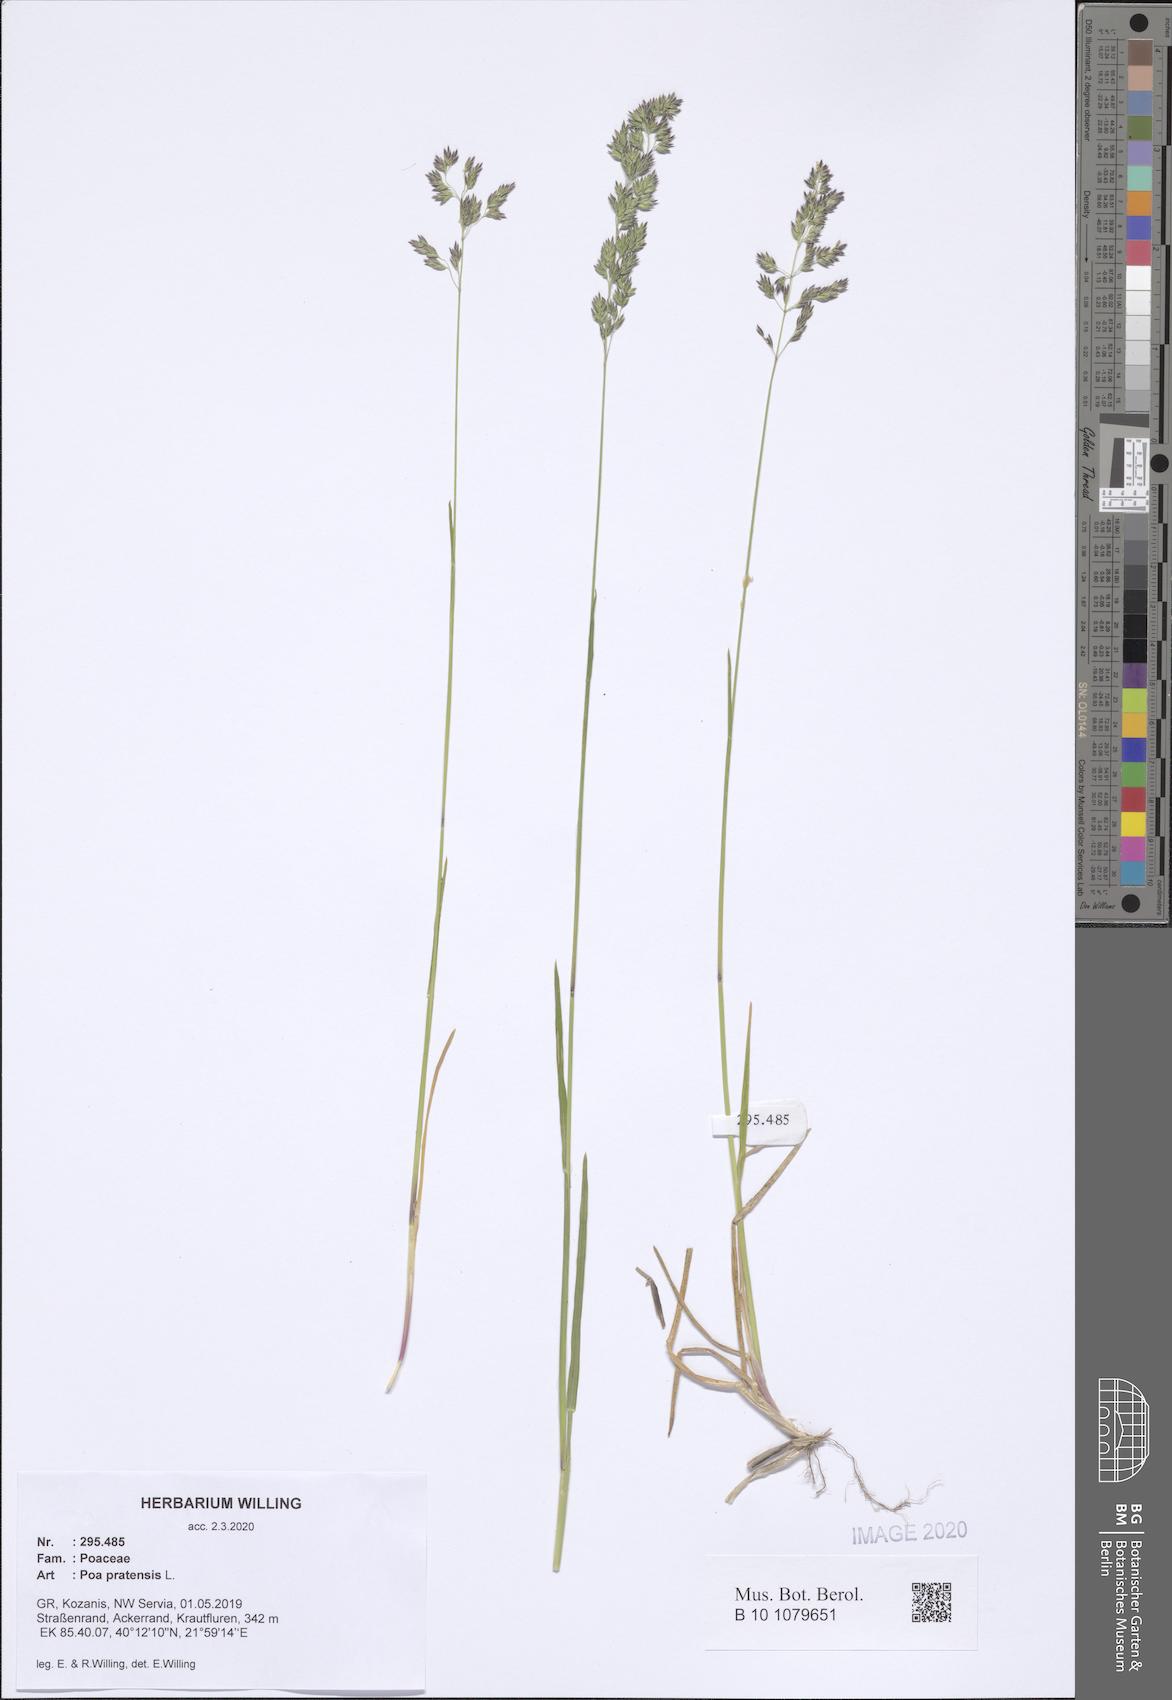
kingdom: Plantae
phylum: Tracheophyta
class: Liliopsida
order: Poales
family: Poaceae
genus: Poa
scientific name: Poa pratensis
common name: Kentucky bluegrass
